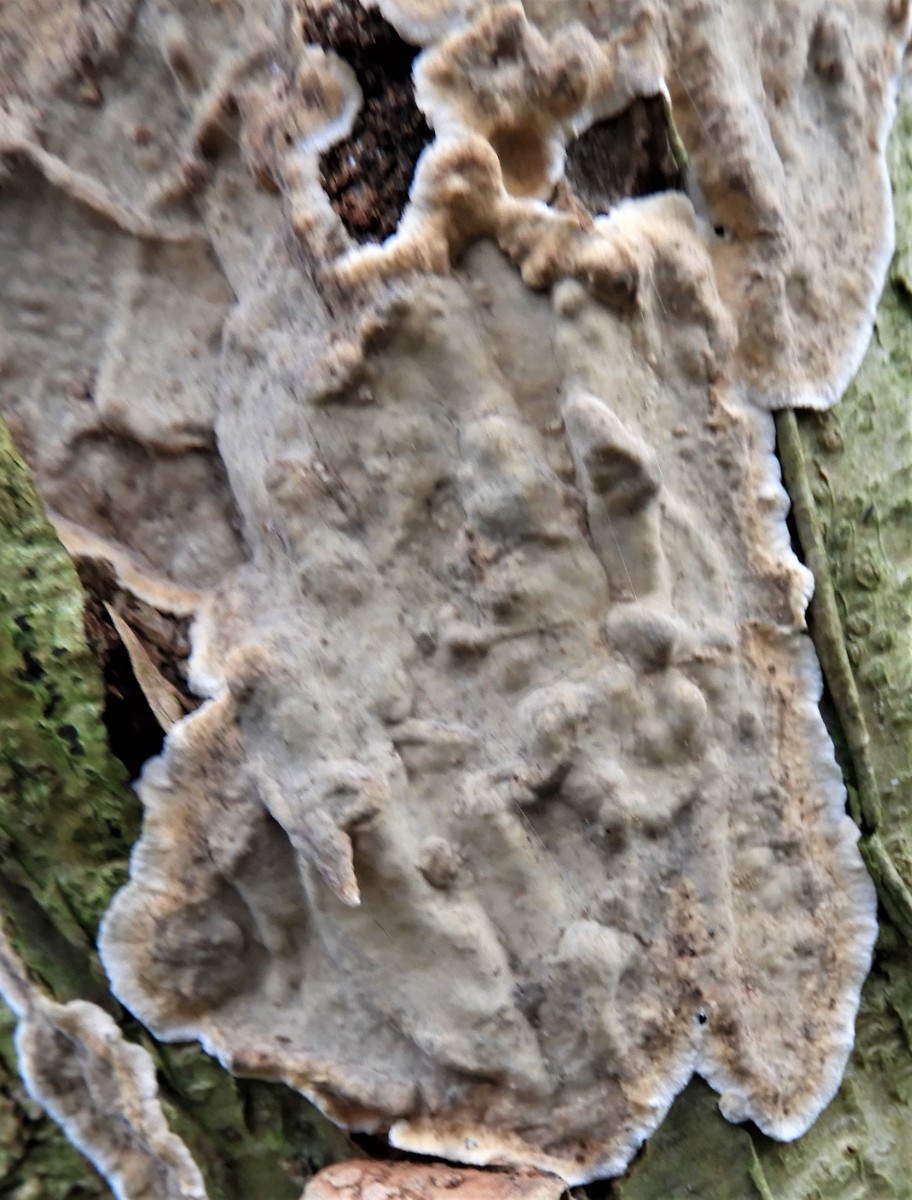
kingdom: Fungi
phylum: Basidiomycota
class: Agaricomycetes
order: Agaricales
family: Physalacriaceae
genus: Cylindrobasidium
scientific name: Cylindrobasidium evolvens
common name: sprækkehinde
